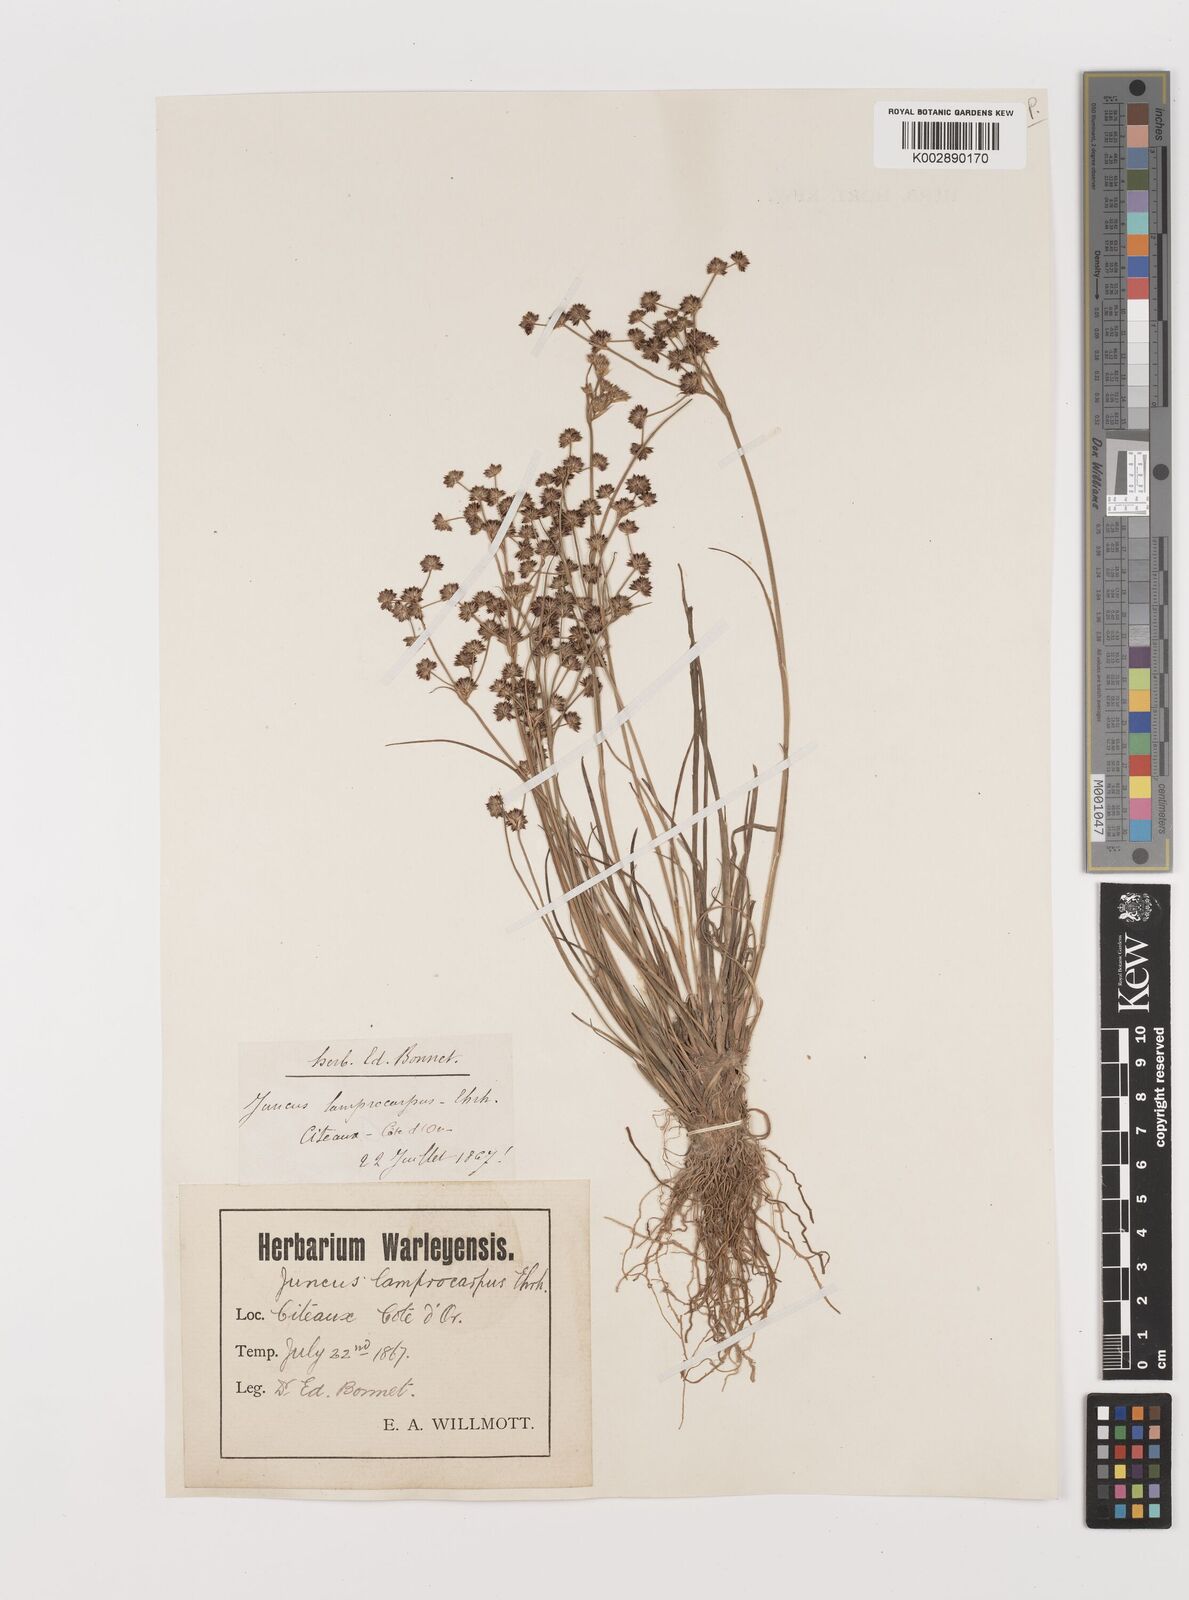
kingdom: Plantae
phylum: Tracheophyta
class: Liliopsida
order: Poales
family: Juncaceae
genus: Juncus
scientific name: Juncus articulatus
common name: Jointed rush
